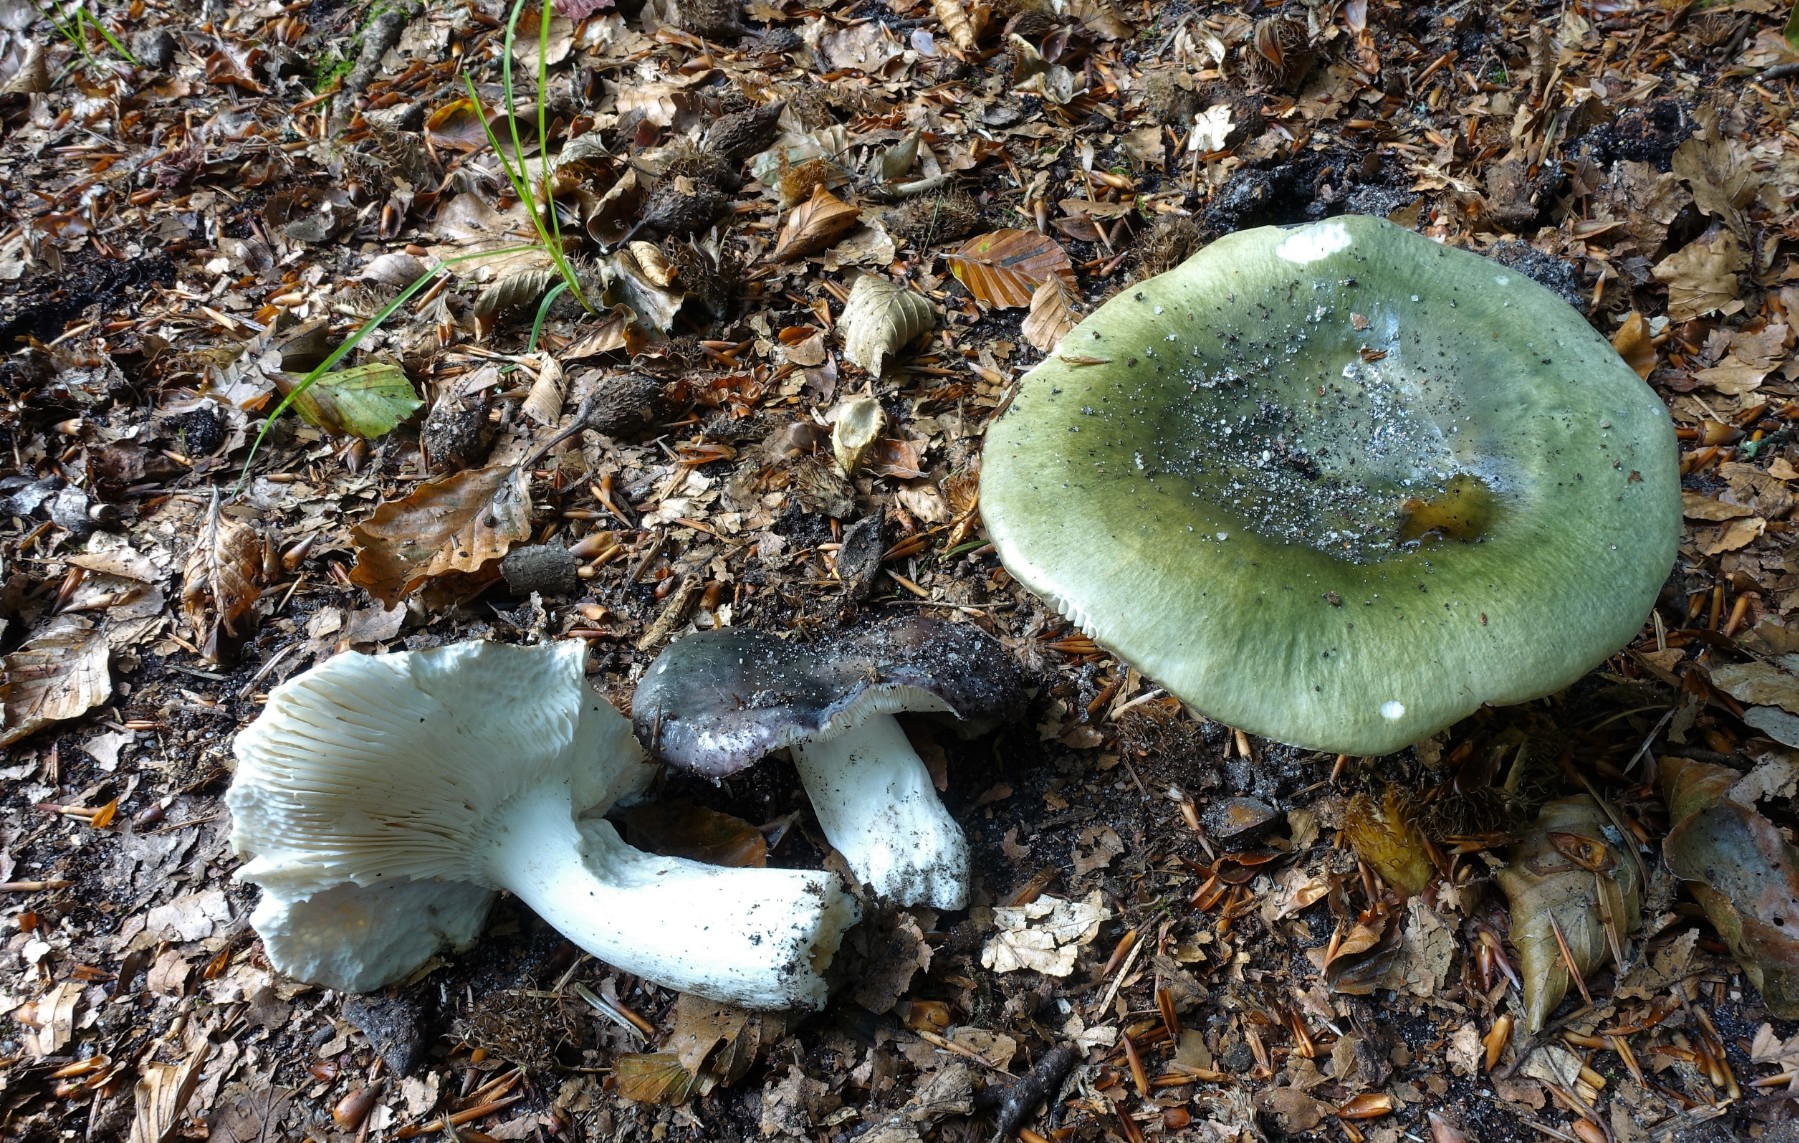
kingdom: Fungi
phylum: Basidiomycota
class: Agaricomycetes
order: Russulales
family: Russulaceae
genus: Russula
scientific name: Russula cyanoxantha
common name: broget skørhat
